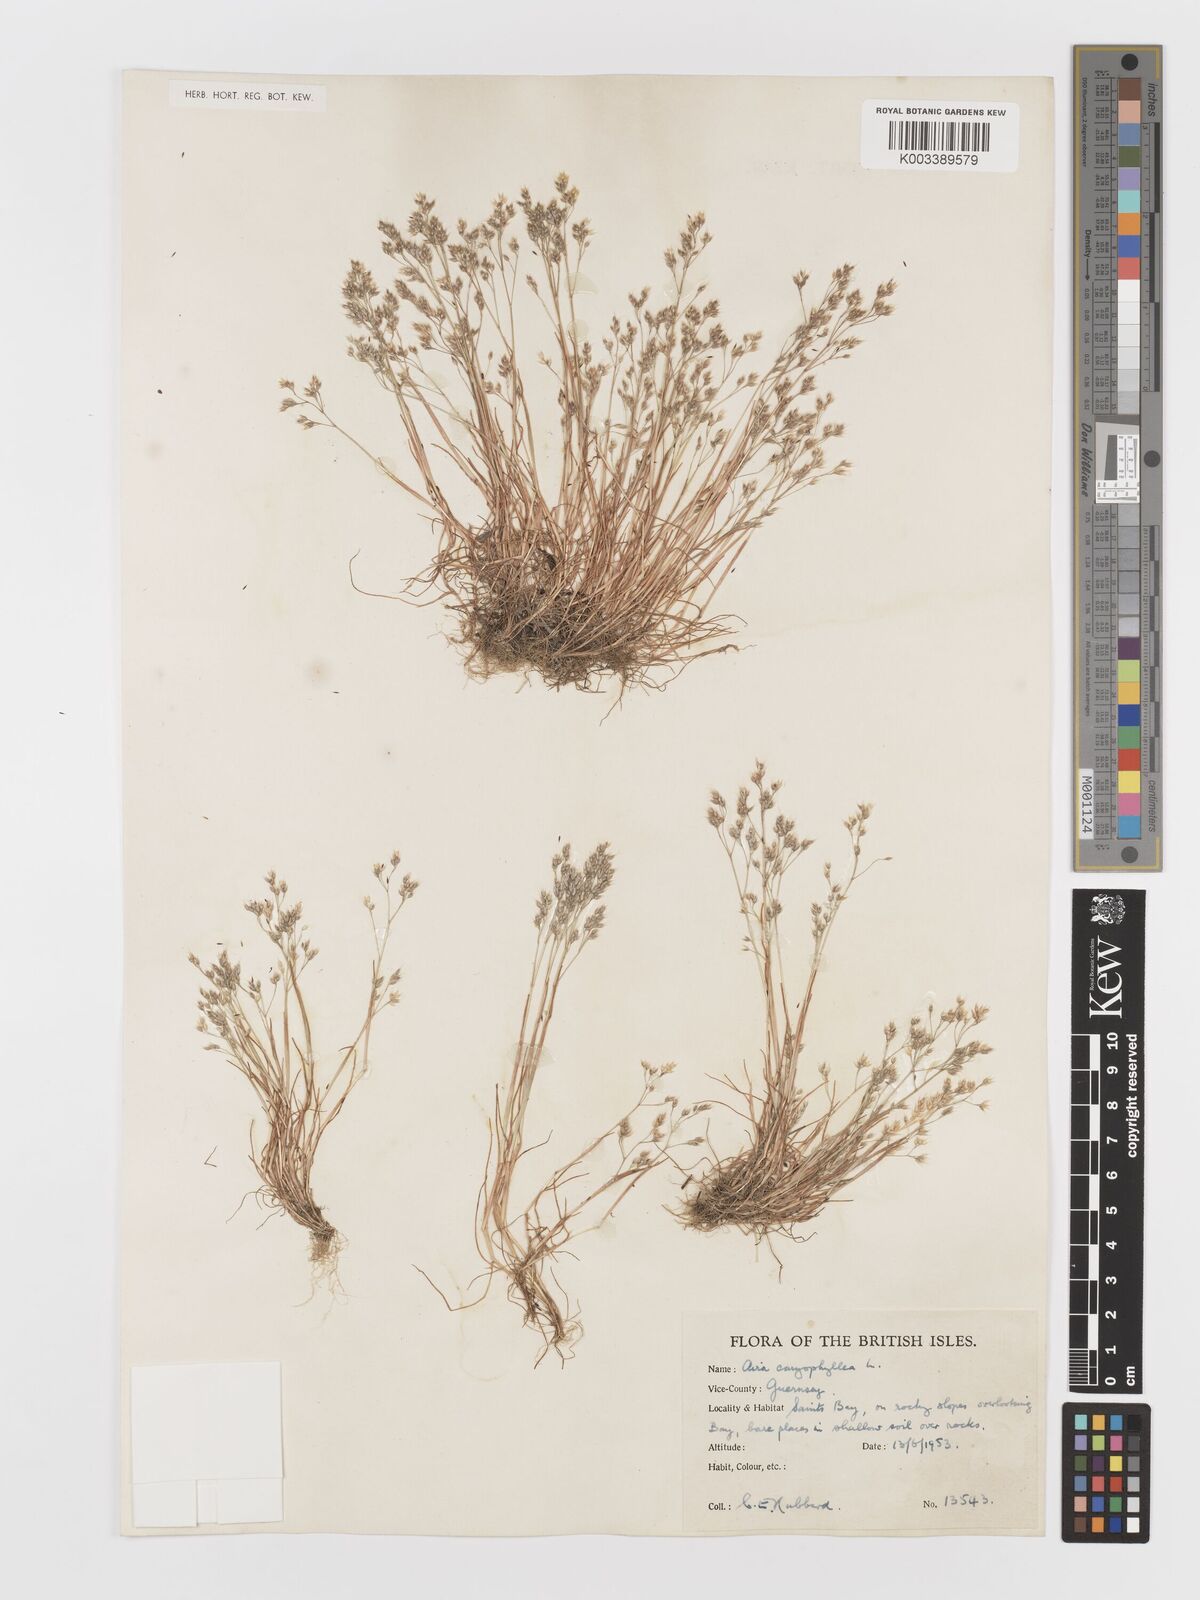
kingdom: Plantae
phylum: Tracheophyta
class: Liliopsida
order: Poales
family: Poaceae
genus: Aira
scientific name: Aira caryophyllea
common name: Silver hairgrass
